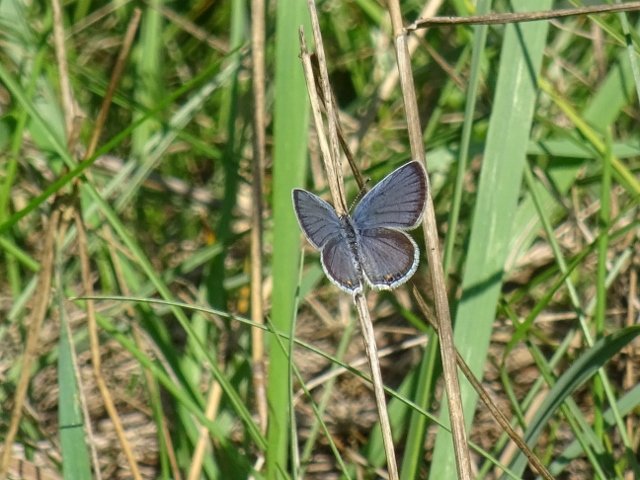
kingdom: Animalia
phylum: Arthropoda
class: Insecta
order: Lepidoptera
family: Lycaenidae
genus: Elkalyce
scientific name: Elkalyce comyntas
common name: Eastern Tailed-Blue
